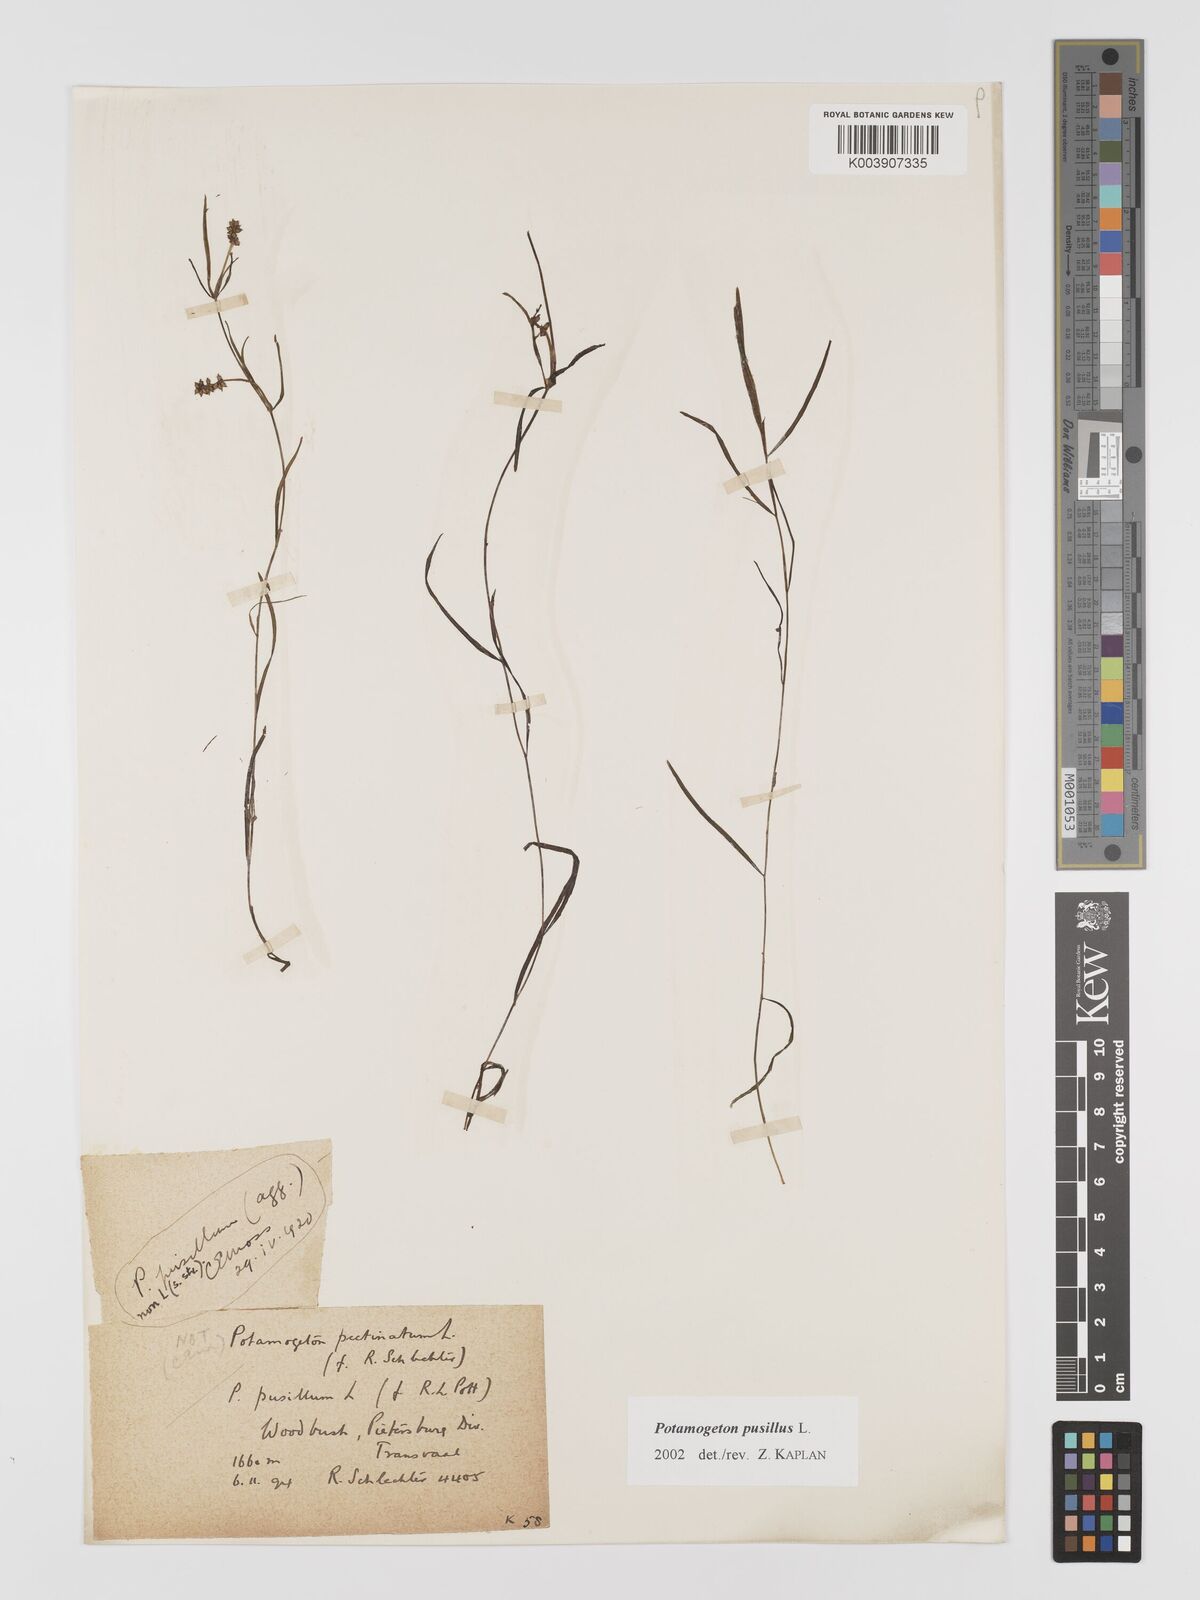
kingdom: Plantae
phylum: Tracheophyta
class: Liliopsida
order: Alismatales
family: Potamogetonaceae
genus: Potamogeton
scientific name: Potamogeton pusillus
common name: Lesser pondweed
